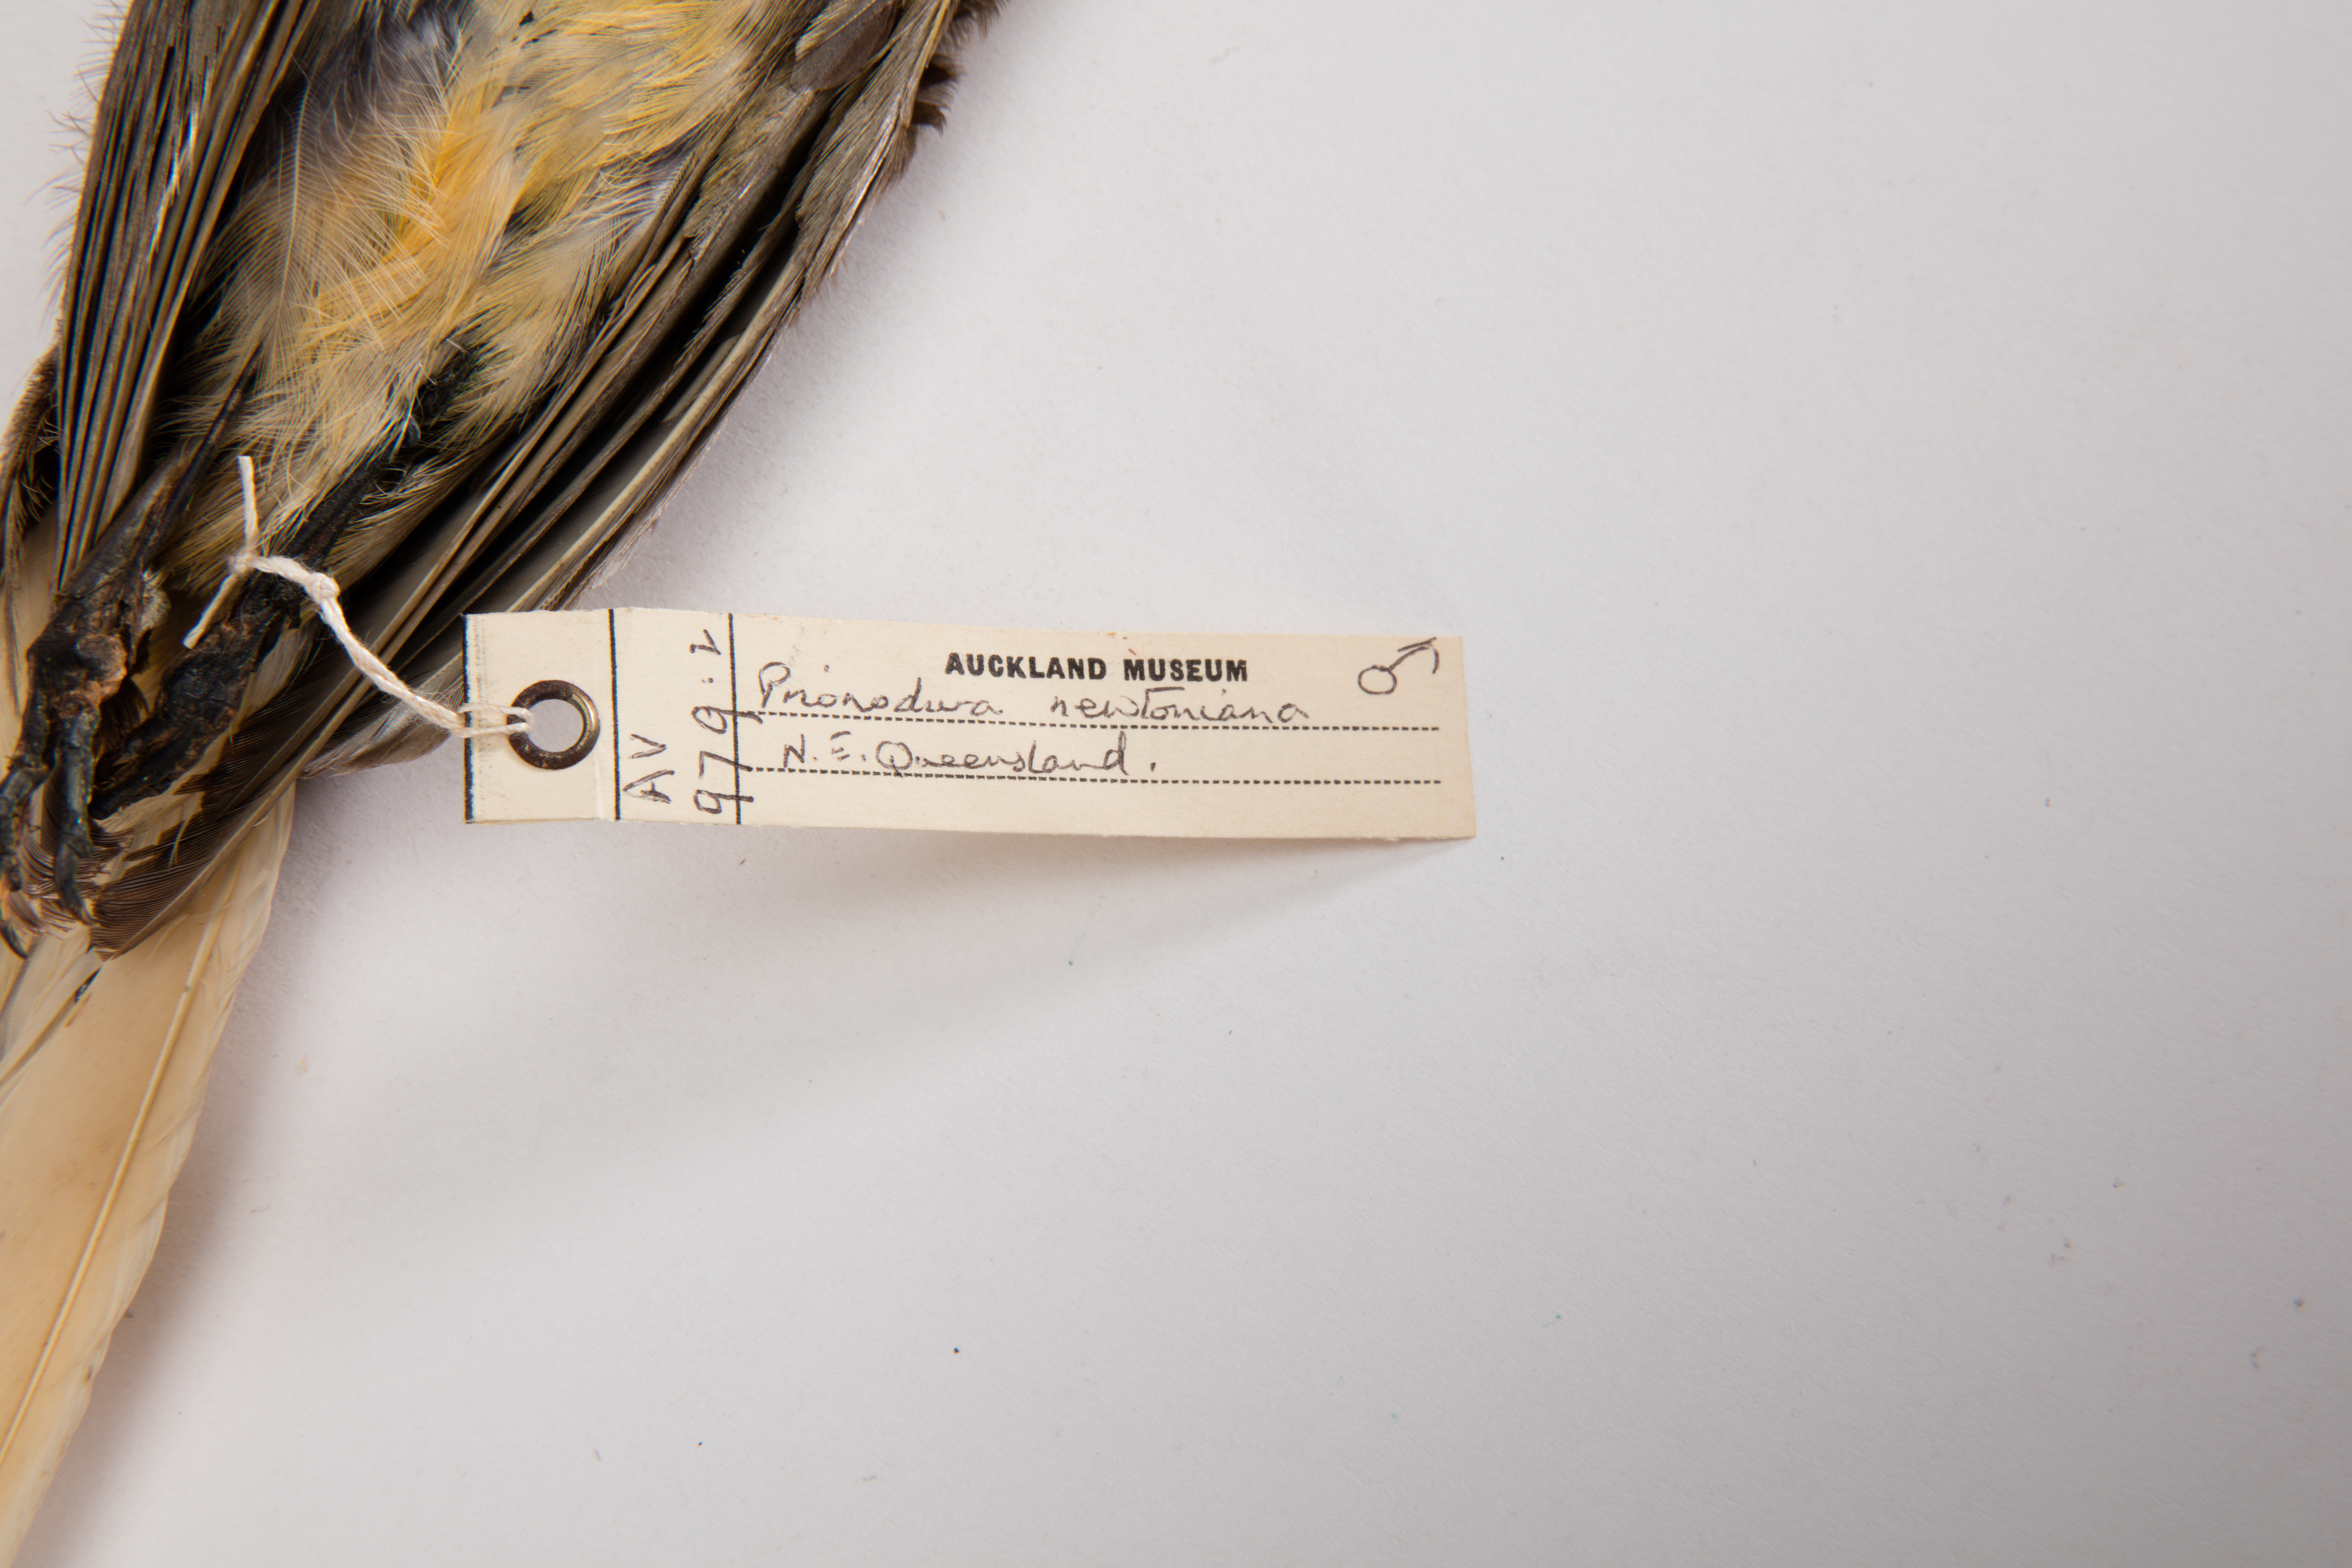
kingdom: Animalia
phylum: Chordata
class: Aves
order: Passeriformes
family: Ptilonorhynchidae
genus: Prionodura
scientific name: Prionodura newtoniana
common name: Golden bowerbird
